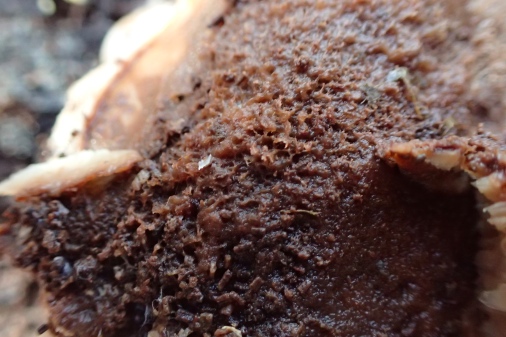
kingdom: Fungi
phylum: Basidiomycota
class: Agaricomycetes
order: Russulales
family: Auriscalpiaceae
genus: Lentinellus
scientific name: Lentinellus ursinus
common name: børstehåret savbladhat
